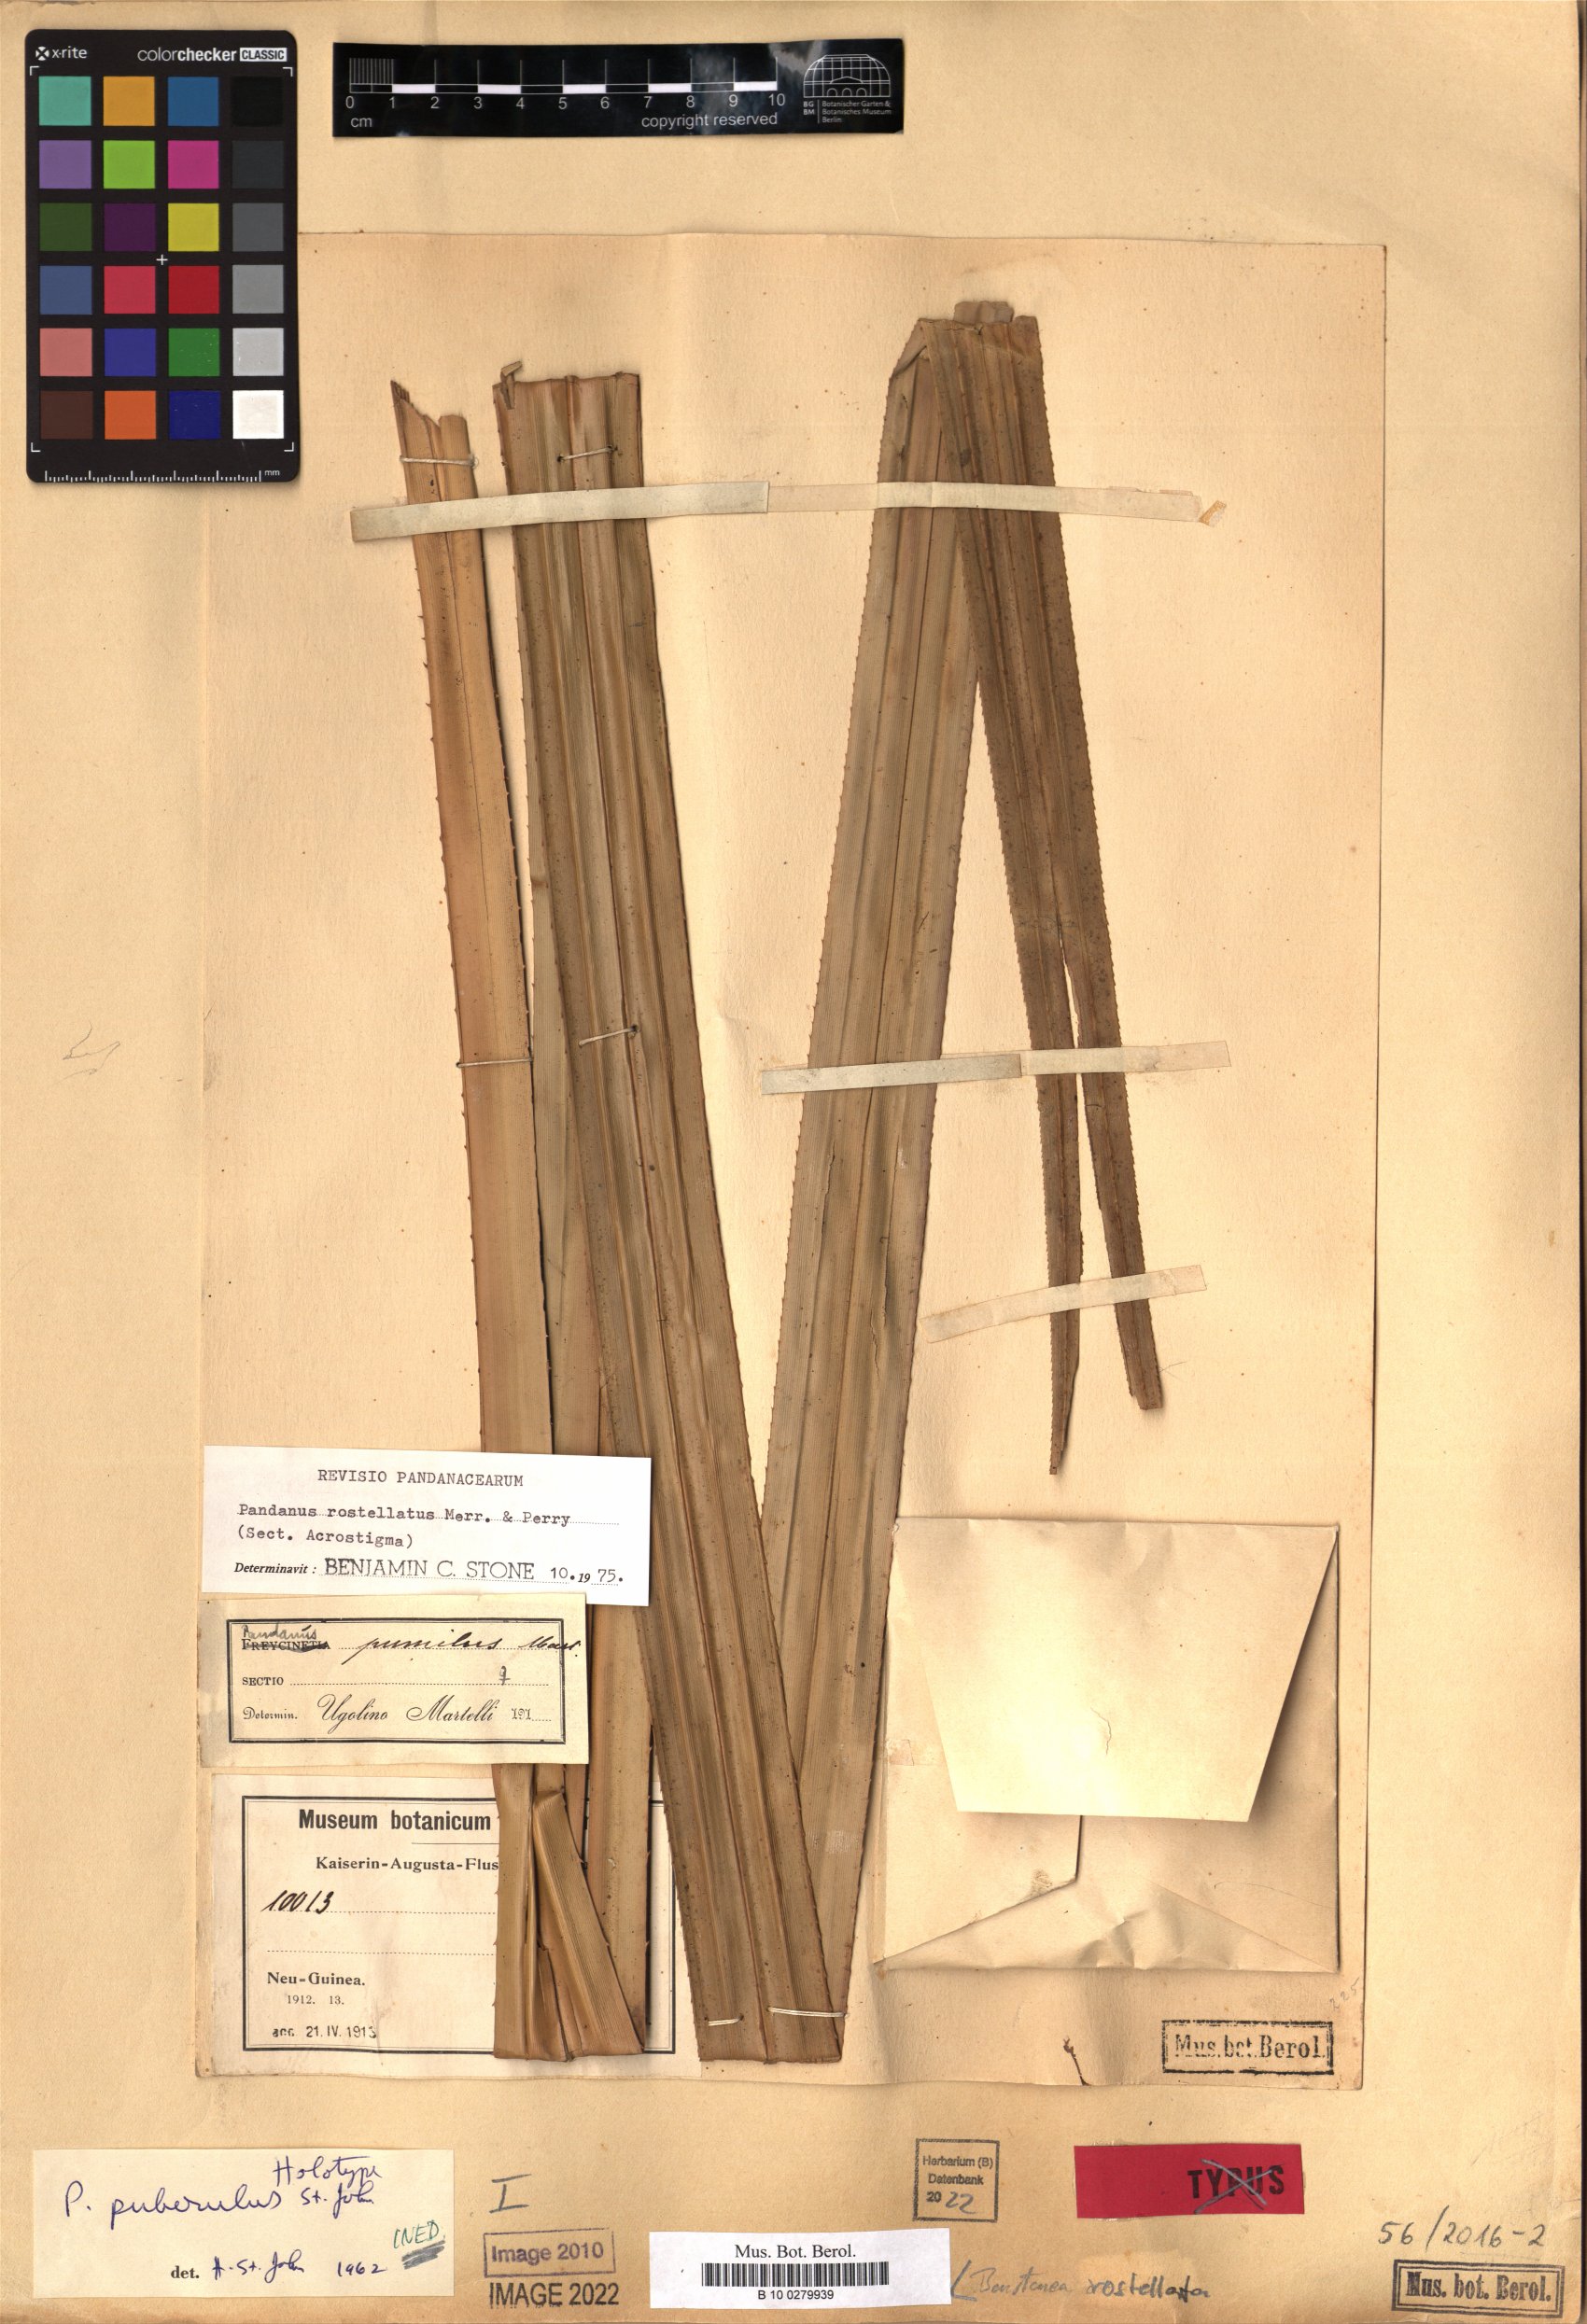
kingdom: Plantae
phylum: Tracheophyta
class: Liliopsida
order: Pandanales
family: Pandanaceae
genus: Benstonea
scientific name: Benstonea rostellata
